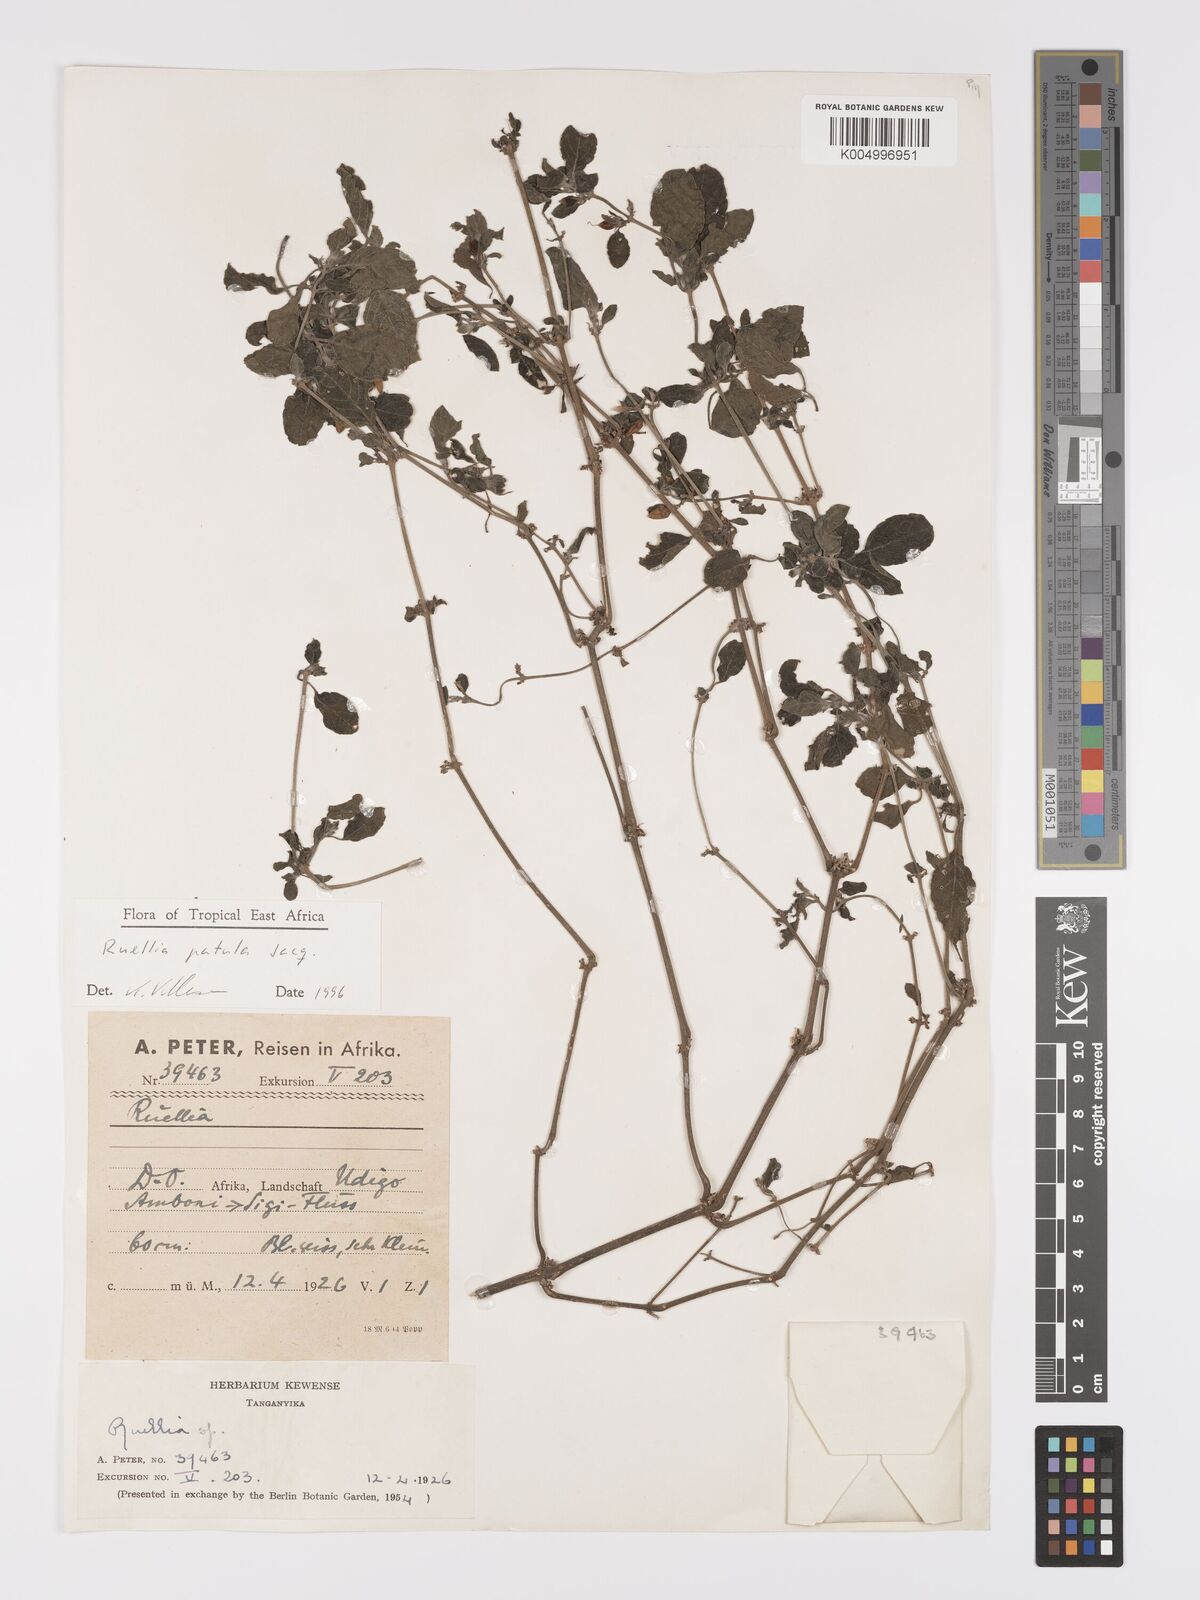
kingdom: Plantae
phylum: Tracheophyta
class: Magnoliopsida
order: Lamiales
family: Acanthaceae
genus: Ruellia
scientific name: Ruellia patula
